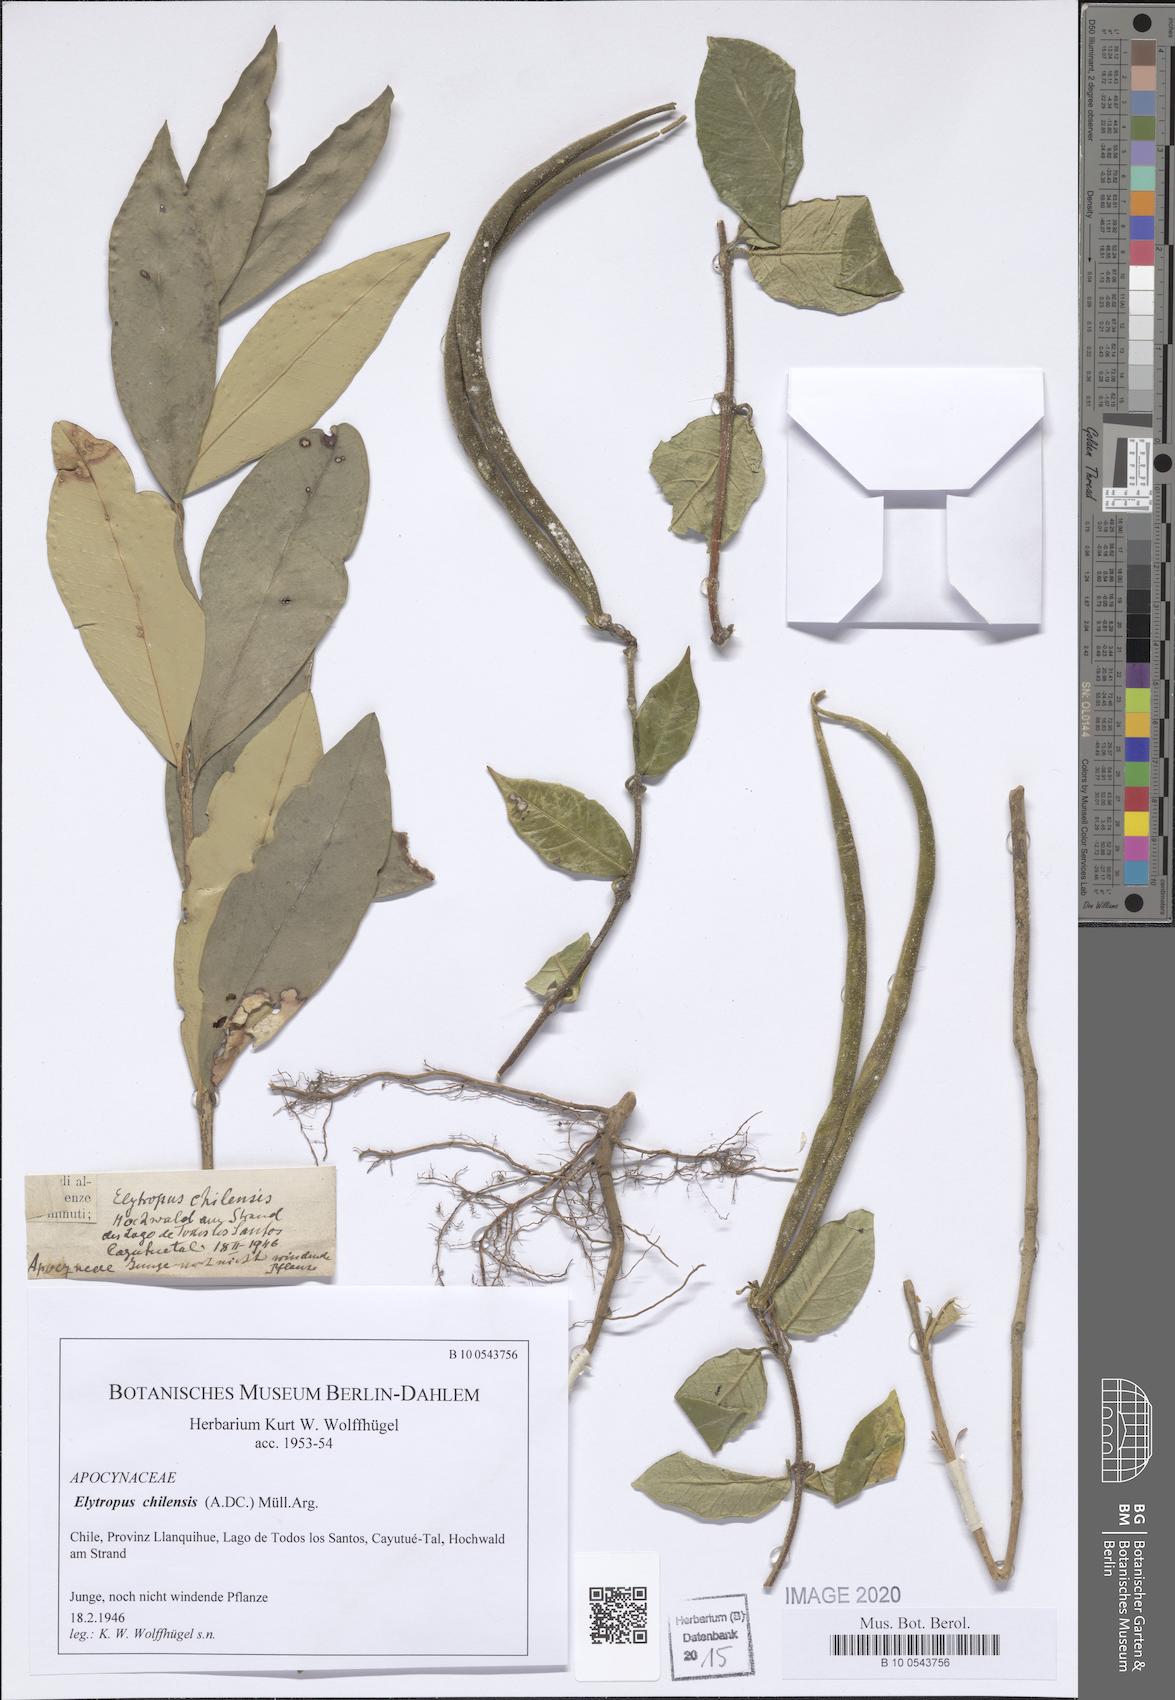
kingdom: Plantae
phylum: Tracheophyta
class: Magnoliopsida
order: Gentianales
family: Apocynaceae
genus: Mandevilla
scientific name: Mandevilla pubescens
